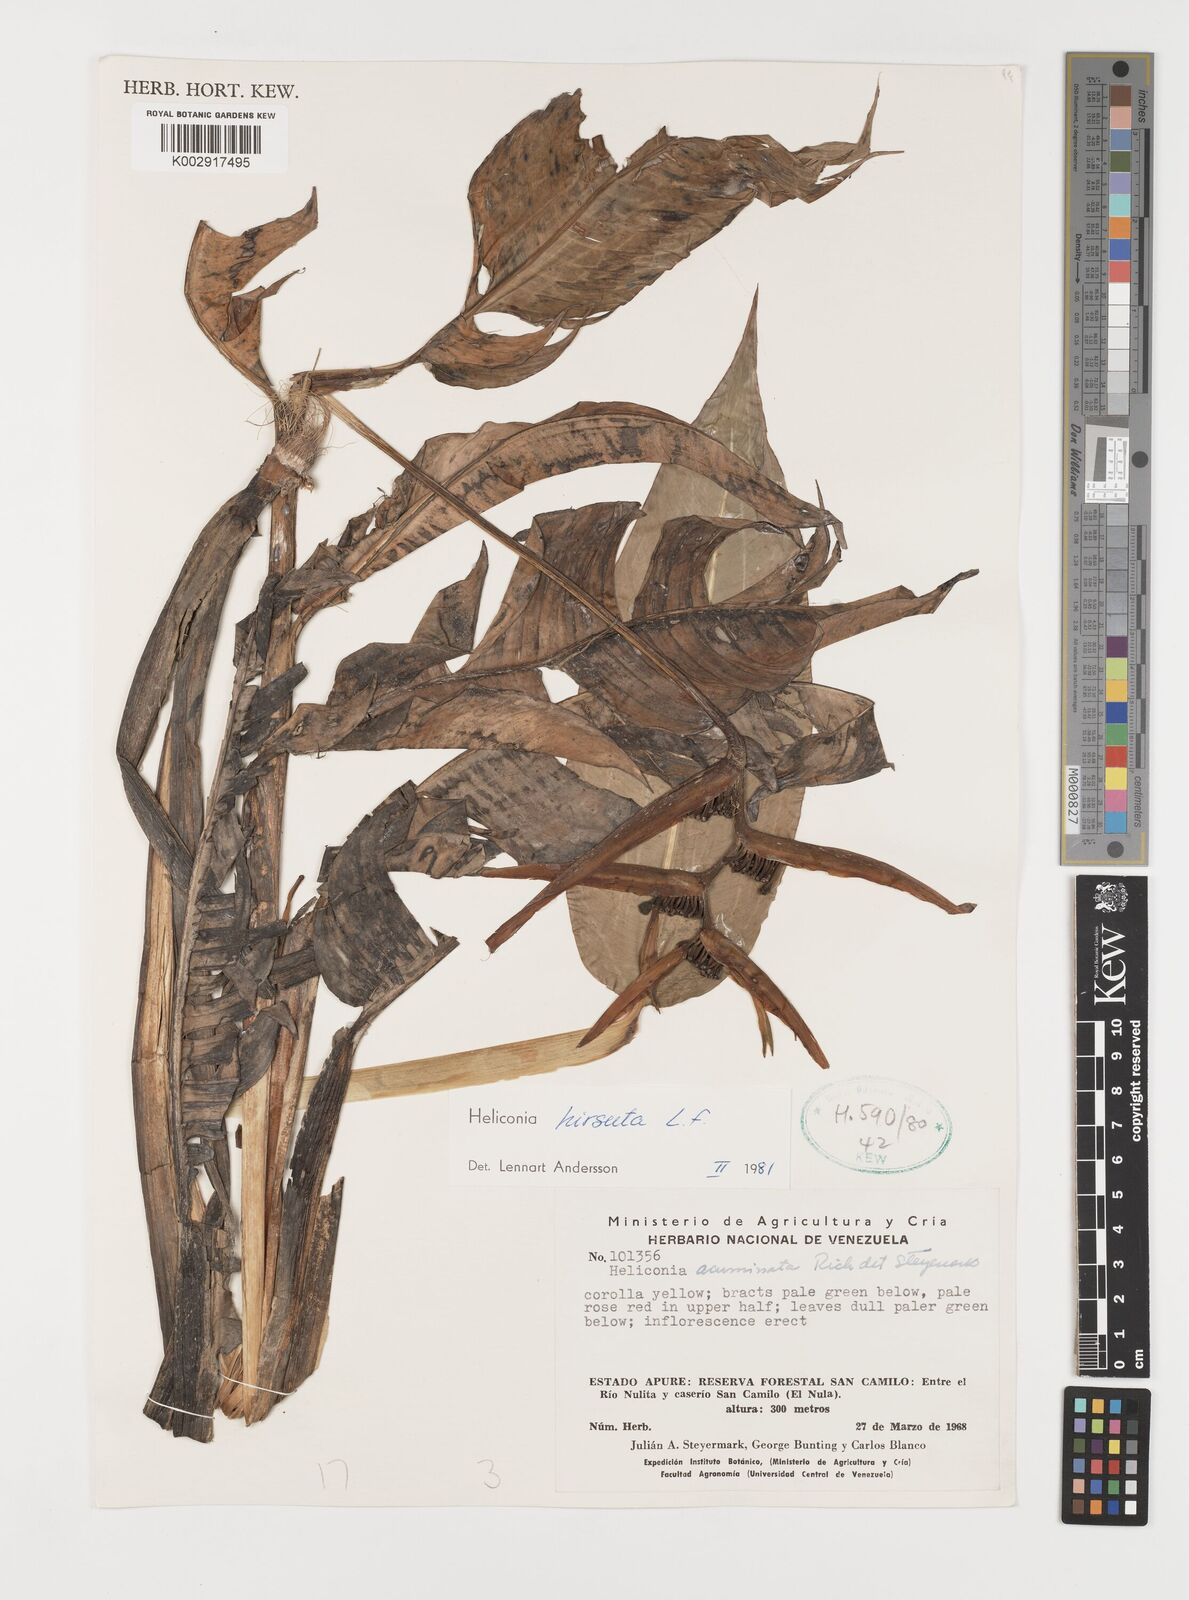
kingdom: Plantae
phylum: Tracheophyta
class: Liliopsida
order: Zingiberales
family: Heliconiaceae
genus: Heliconia
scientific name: Heliconia hirsuta
